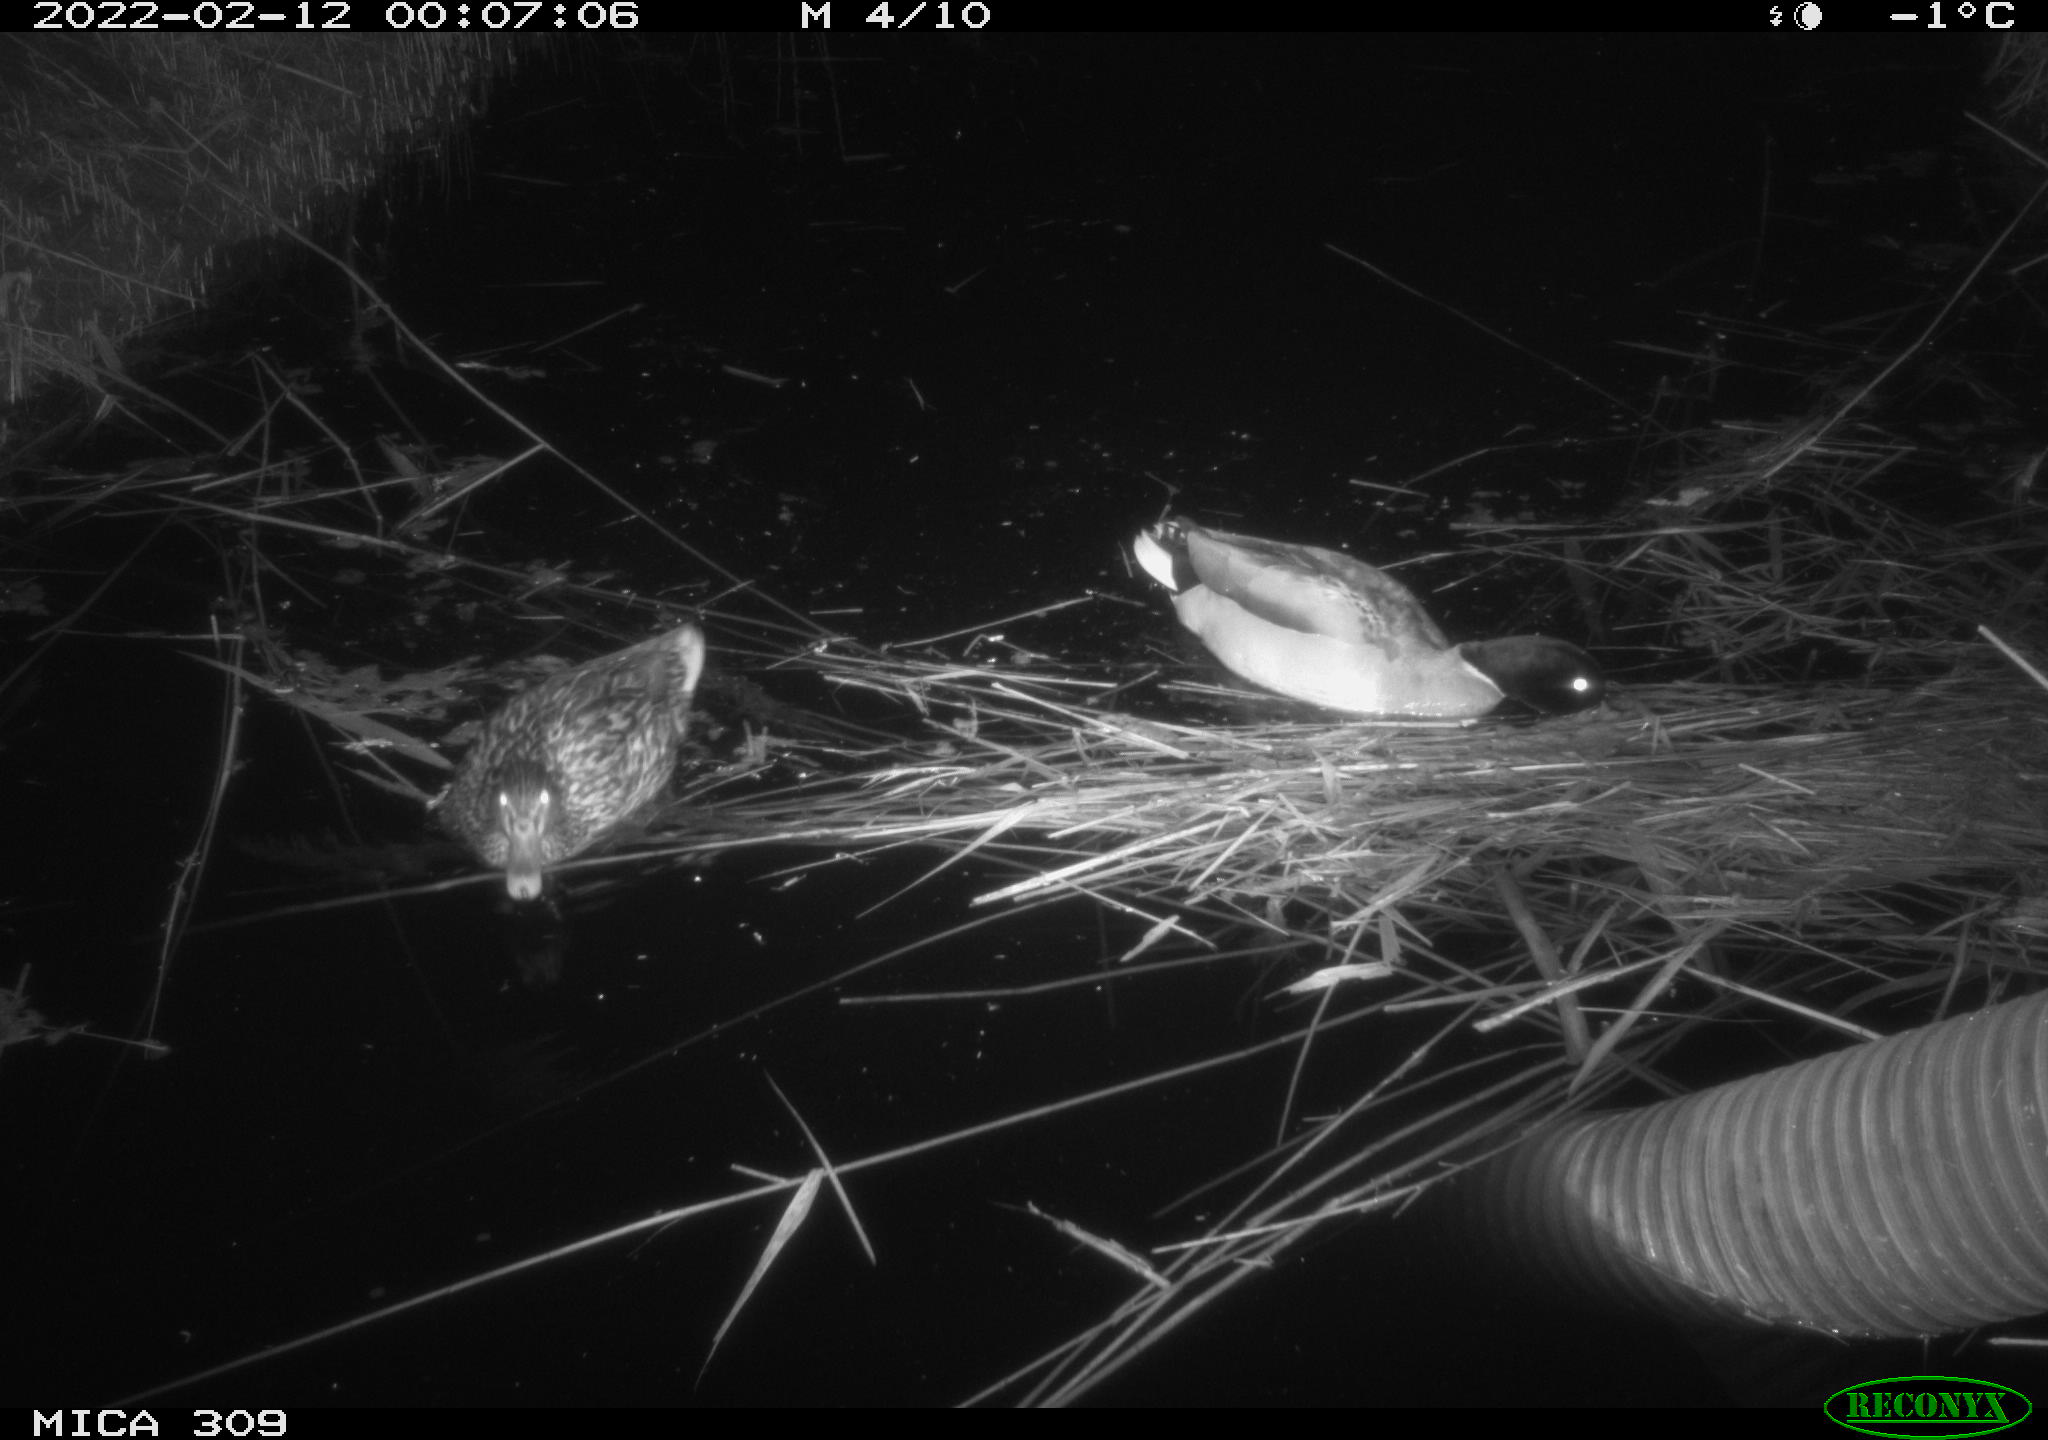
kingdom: Animalia
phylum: Chordata
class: Aves
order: Anseriformes
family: Anatidae
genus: Anas
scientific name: Anas platyrhynchos
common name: Mallard
